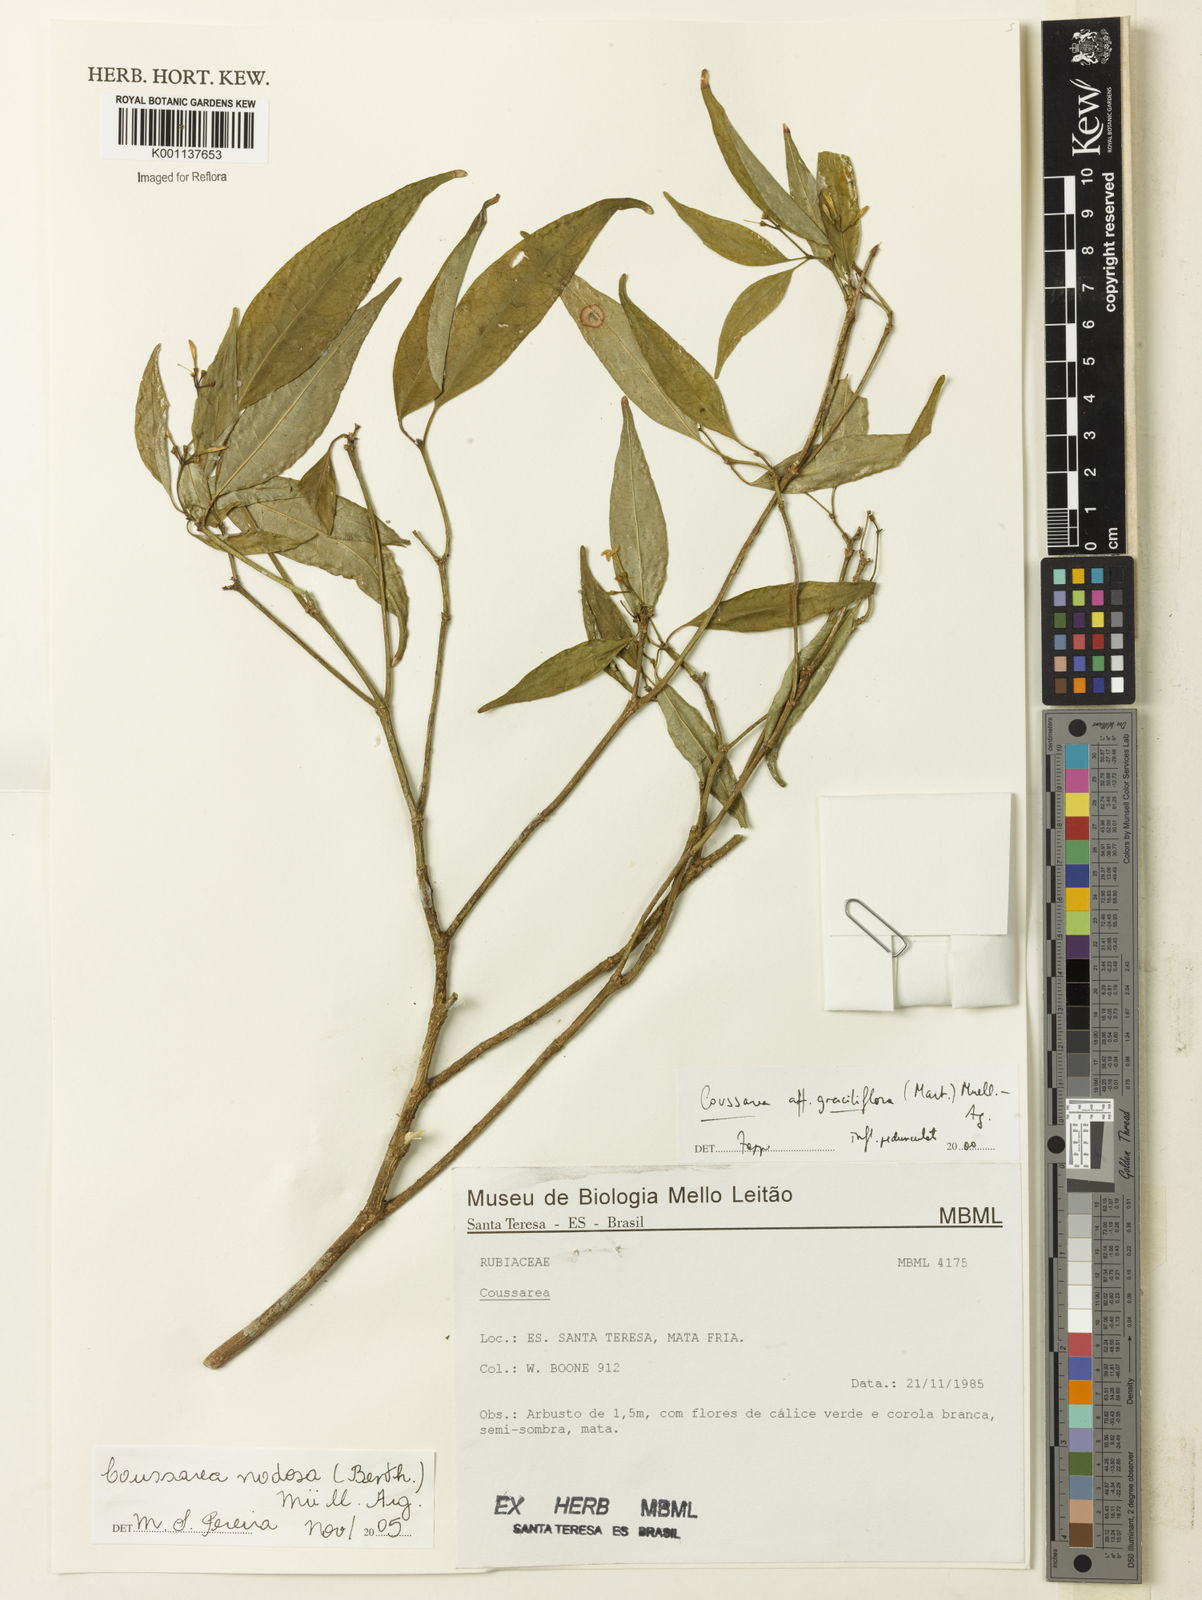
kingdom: Plantae
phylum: Tracheophyta
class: Magnoliopsida
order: Gentianales
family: Rubiaceae
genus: Coussarea
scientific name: Coussarea
